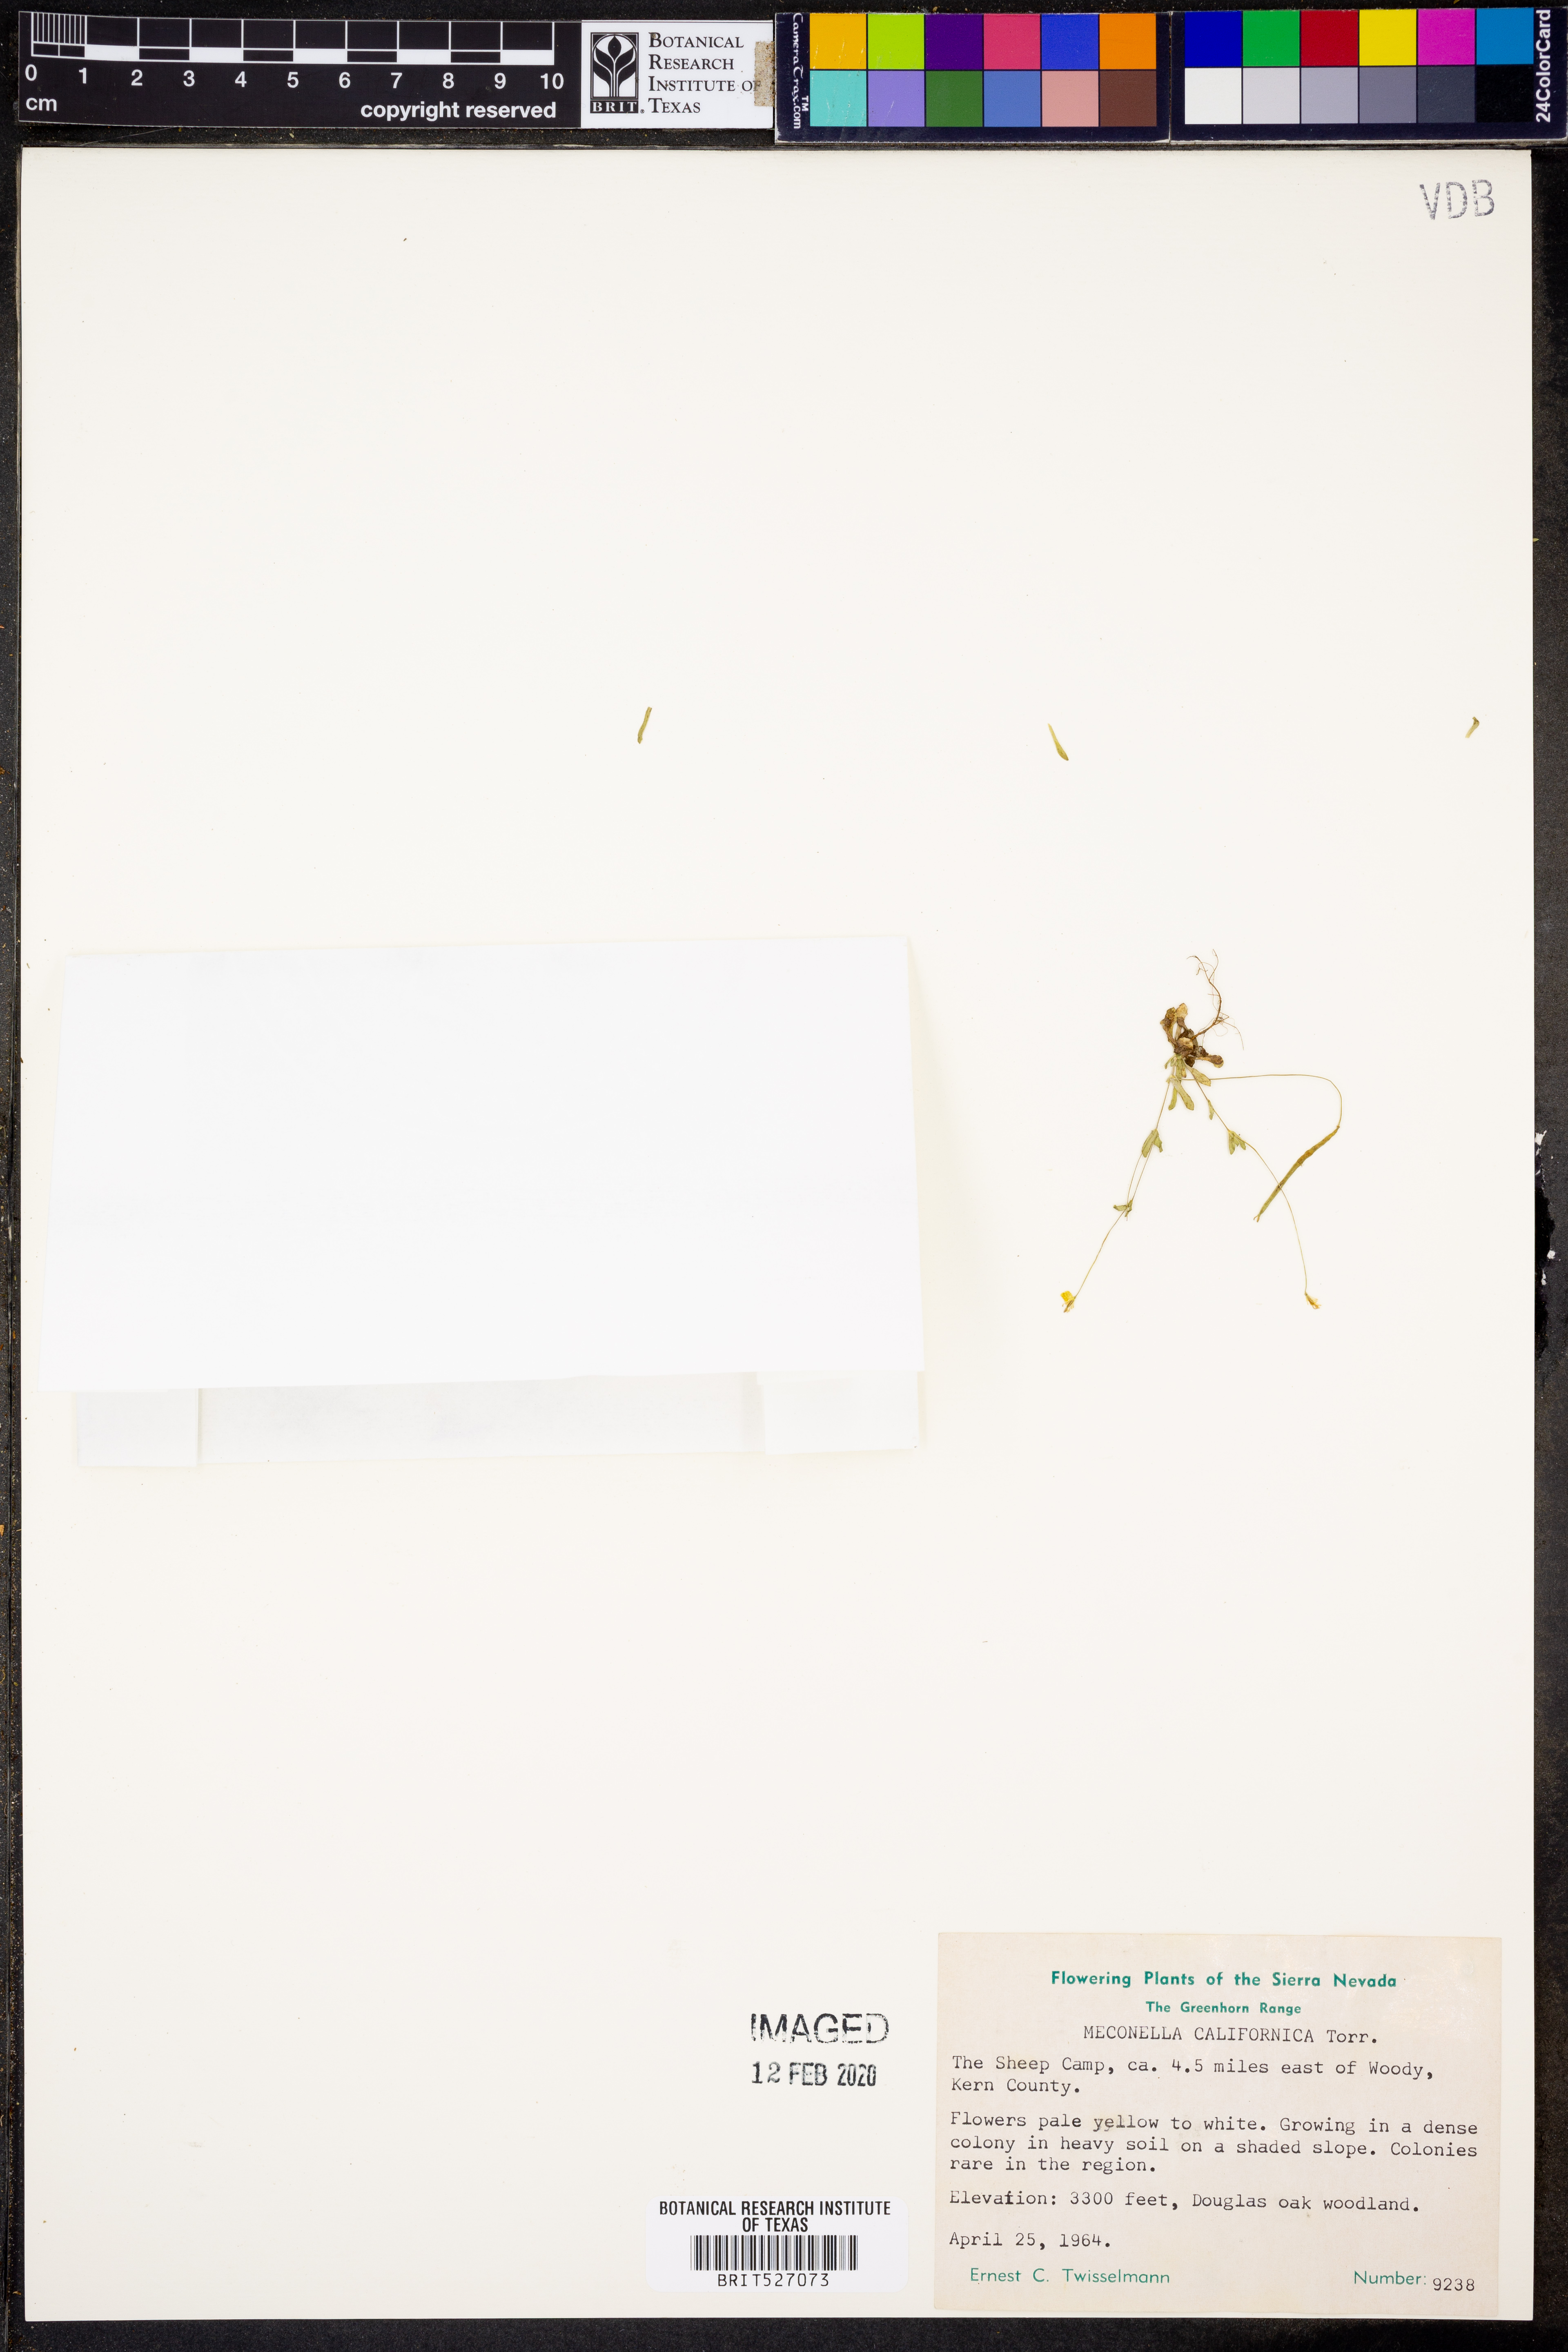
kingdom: Plantae
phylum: Tracheophyta
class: Magnoliopsida
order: Ranunculales
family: Papaveraceae
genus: Meconella
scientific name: Meconella californica
